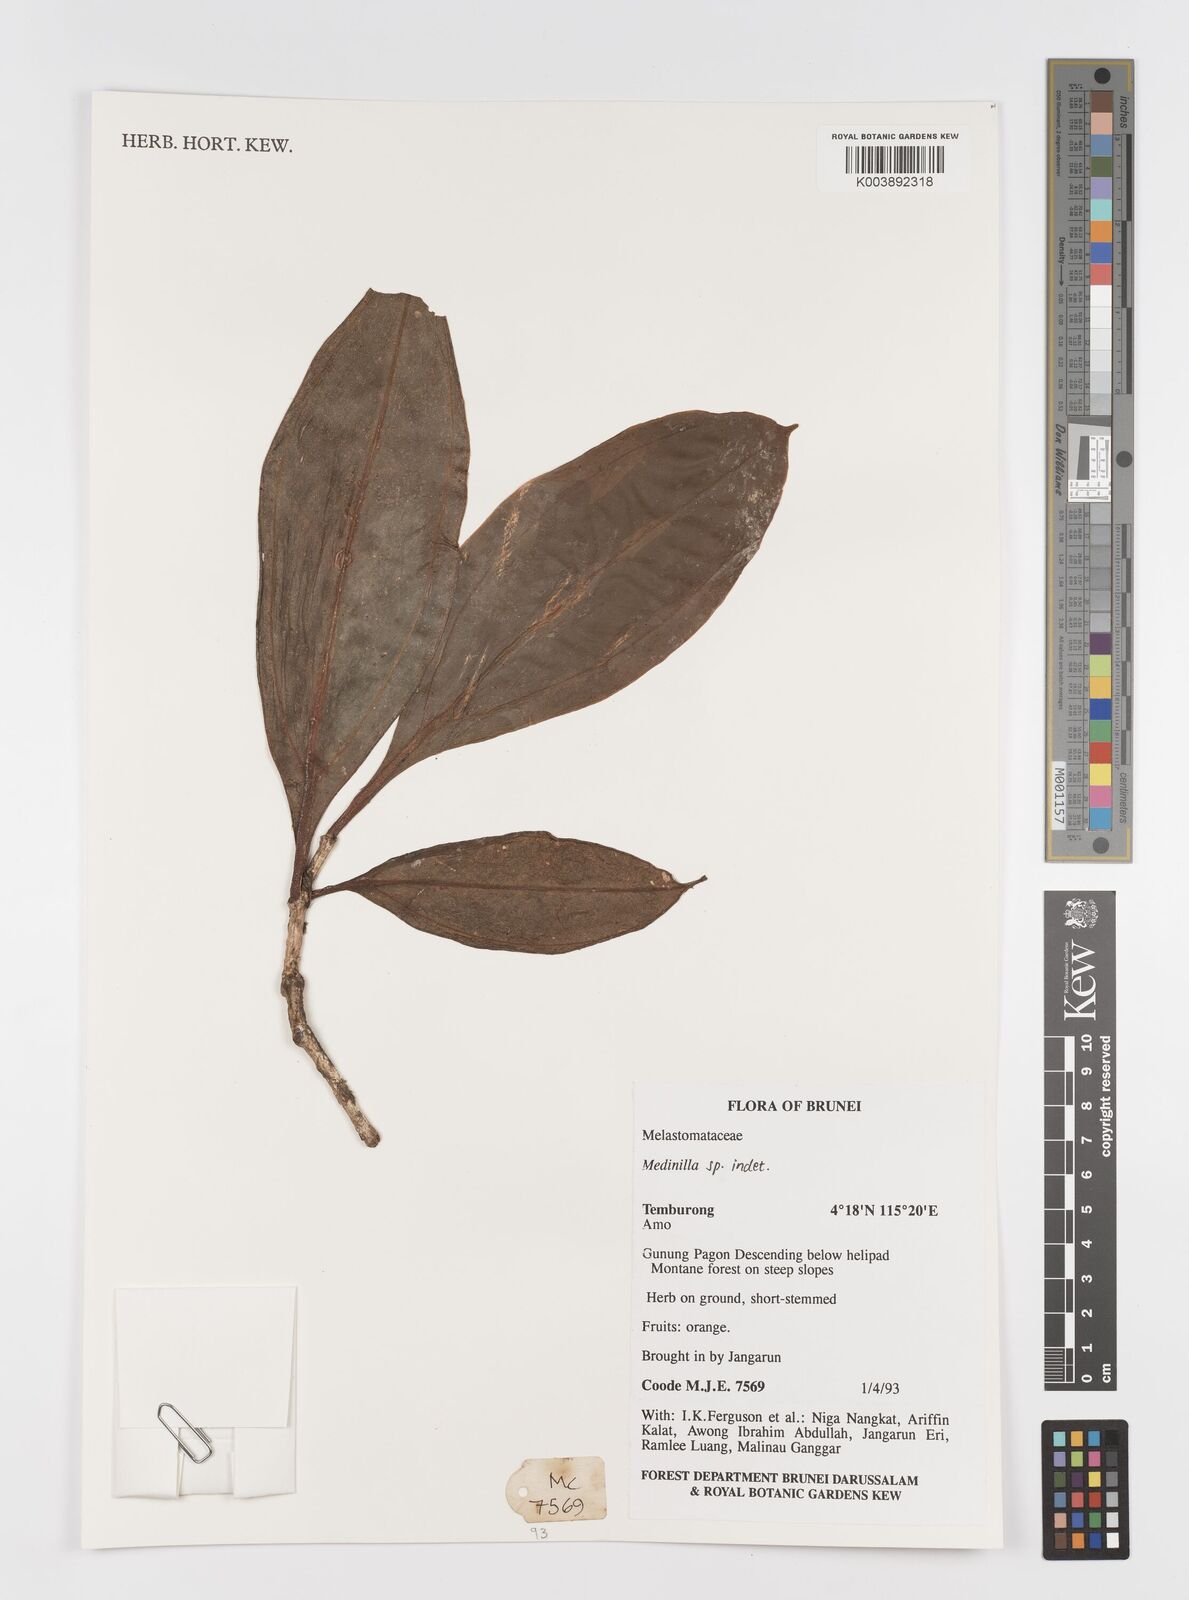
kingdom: Plantae
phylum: Tracheophyta
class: Magnoliopsida
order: Myrtales
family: Melastomataceae
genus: Medinilla
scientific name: Medinilla
